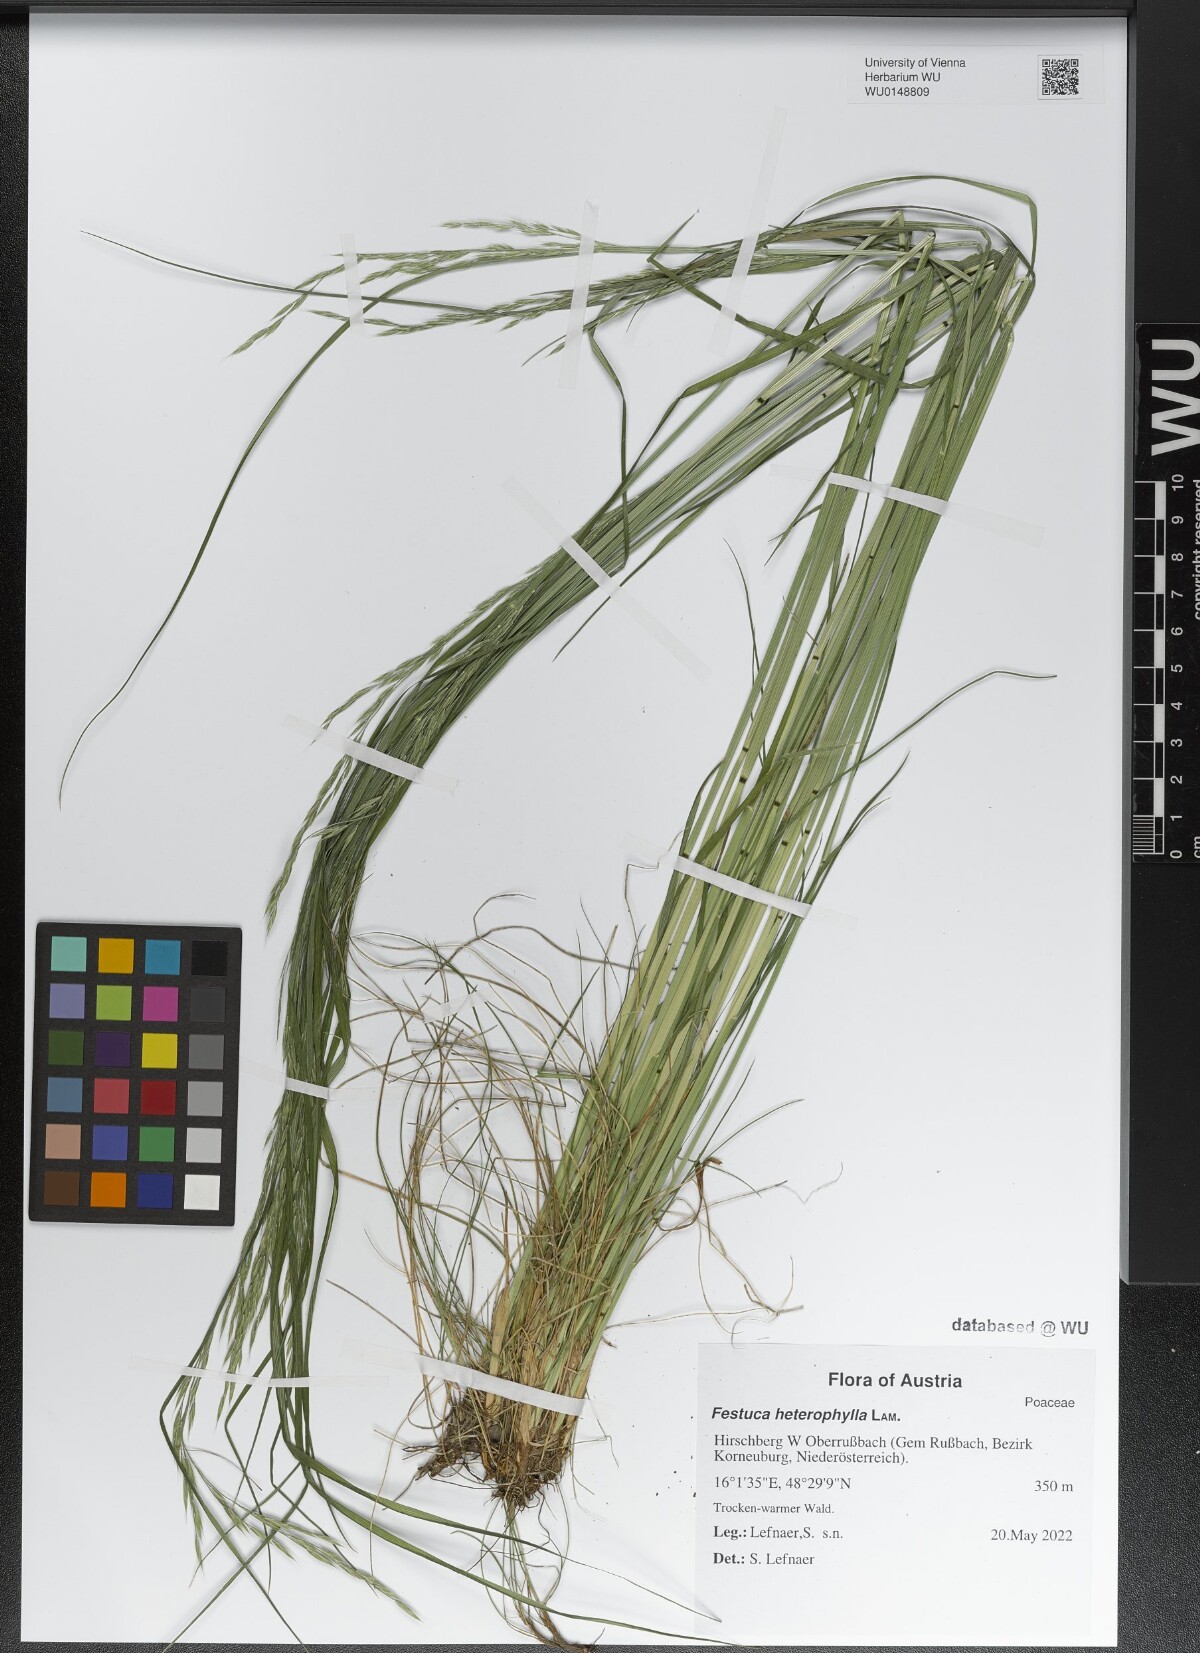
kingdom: Plantae
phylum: Tracheophyta
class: Liliopsida
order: Poales
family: Poaceae
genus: Festuca
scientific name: Festuca heterophylla
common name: Various-leaved fescue
